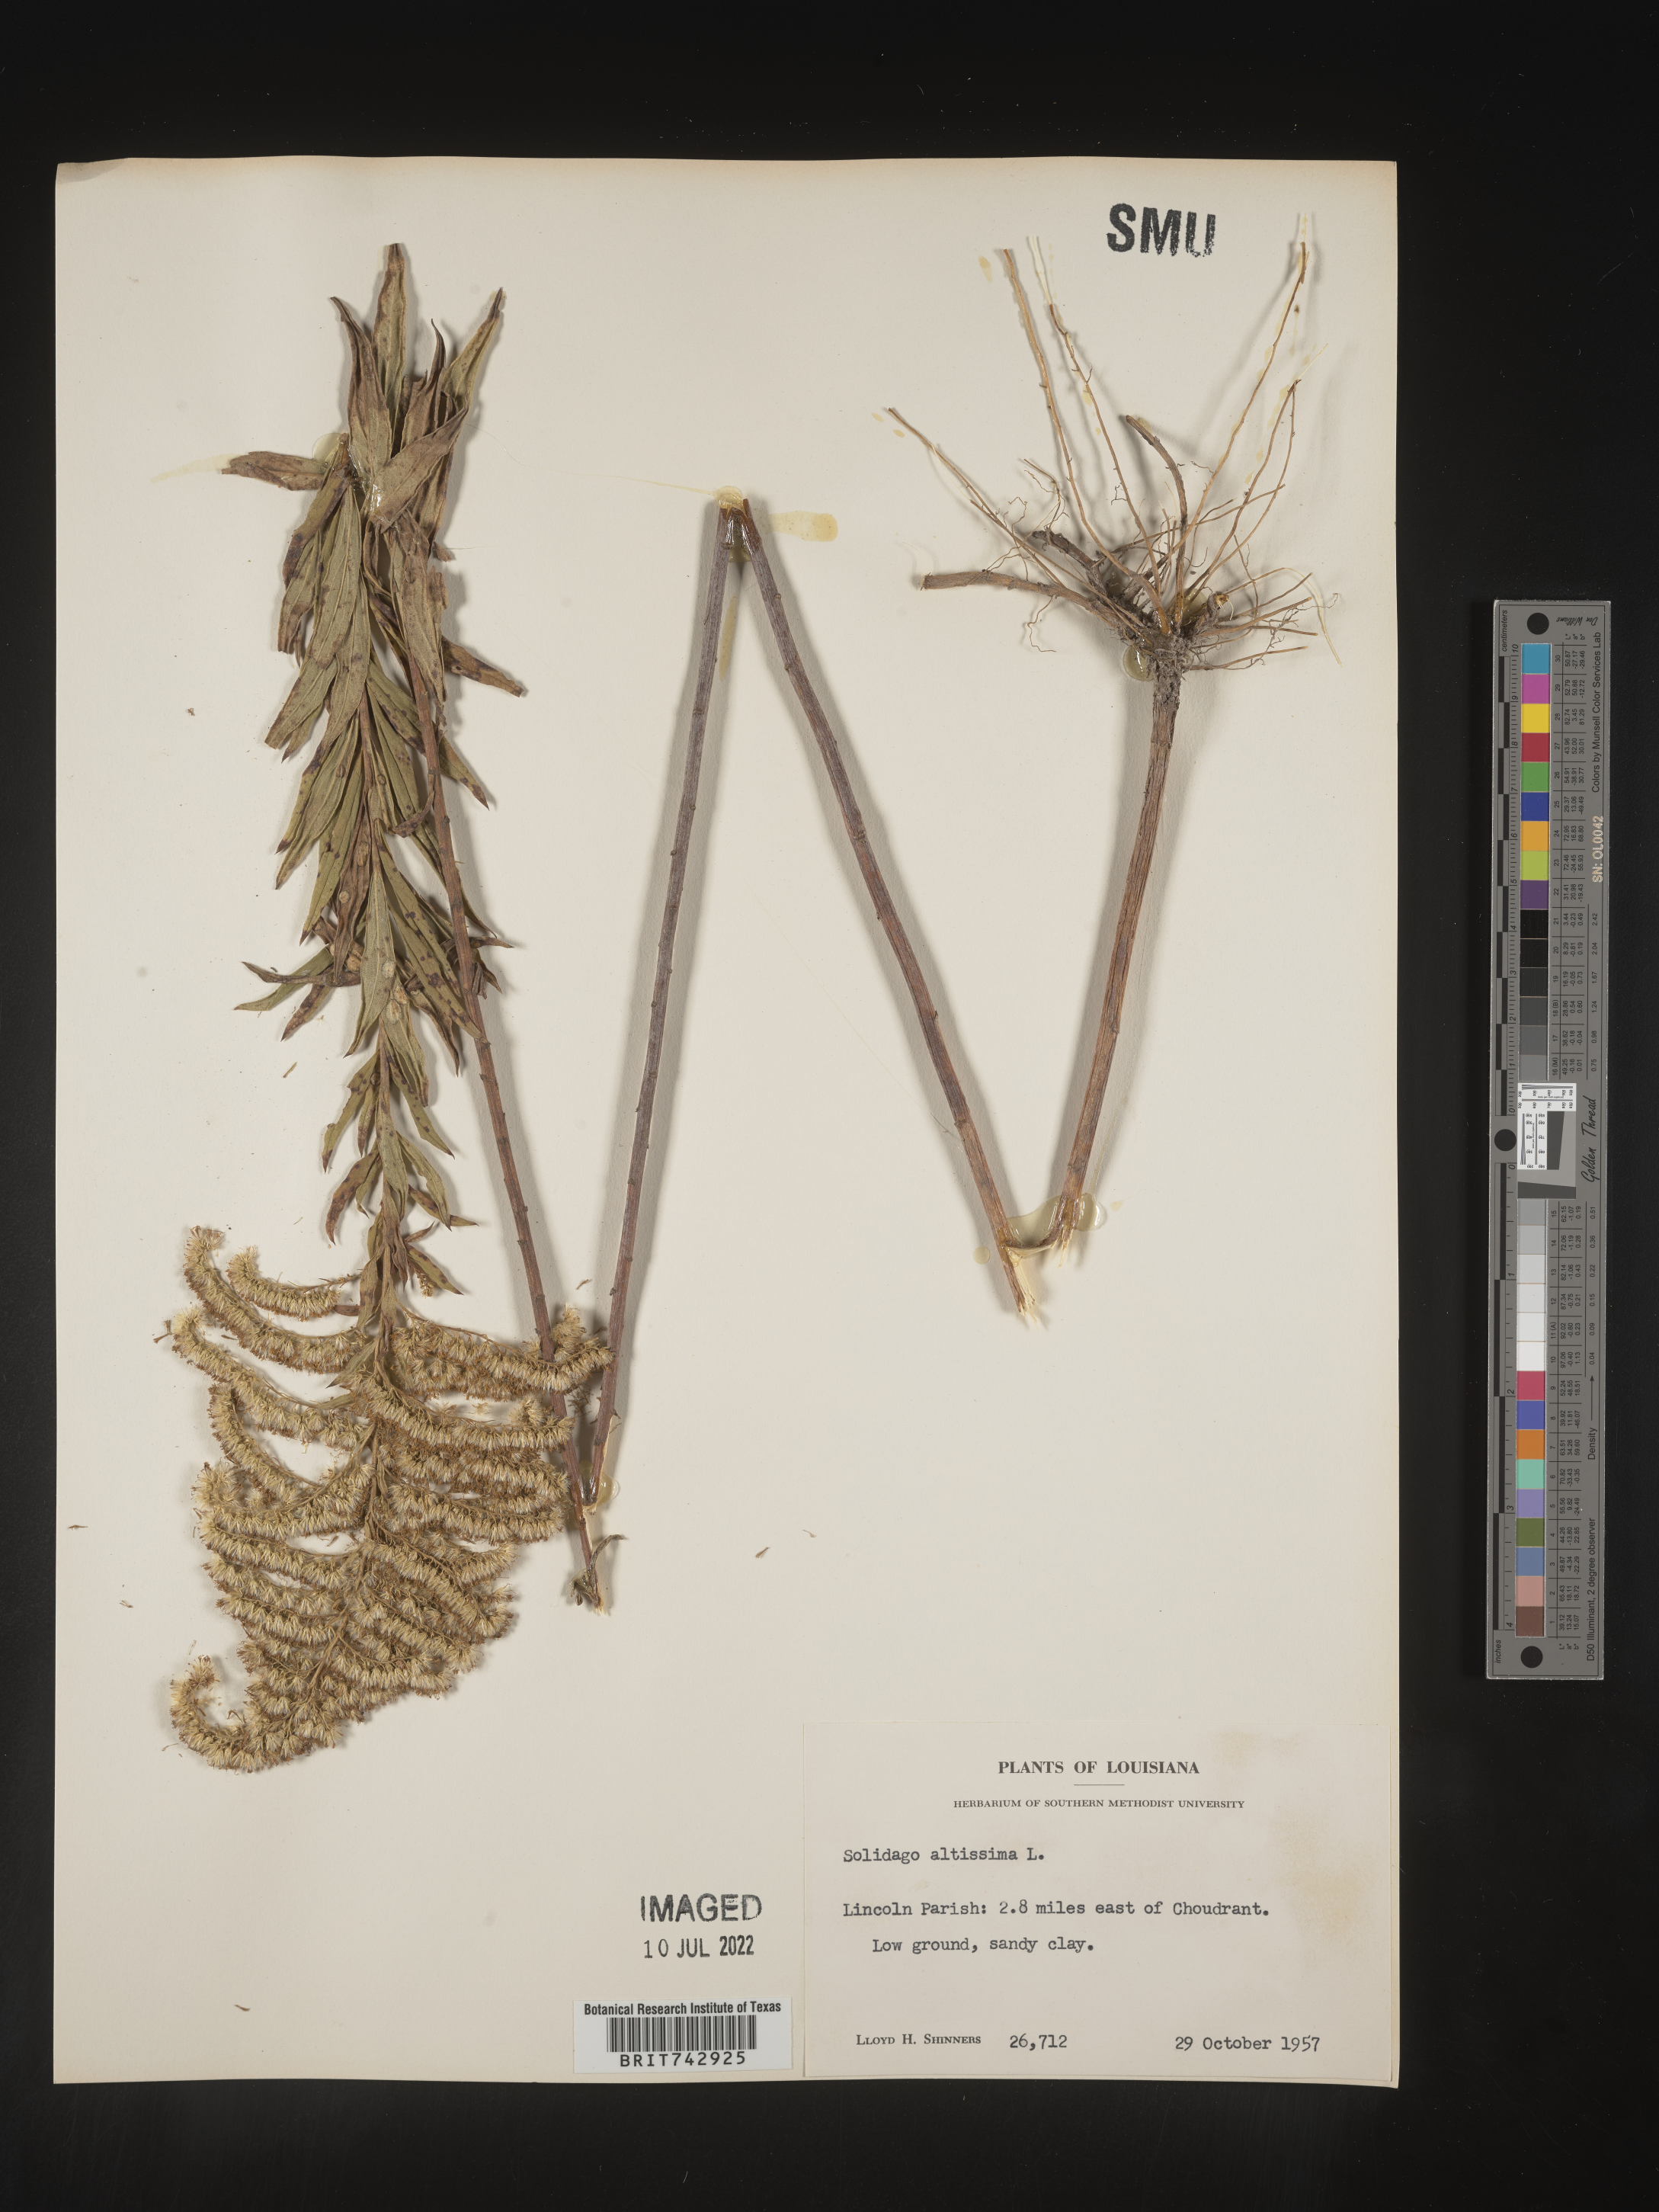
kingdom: Plantae
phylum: Tracheophyta
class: Magnoliopsida
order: Asterales
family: Asteraceae
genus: Solidago
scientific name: Solidago altissima
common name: Late goldenrod
